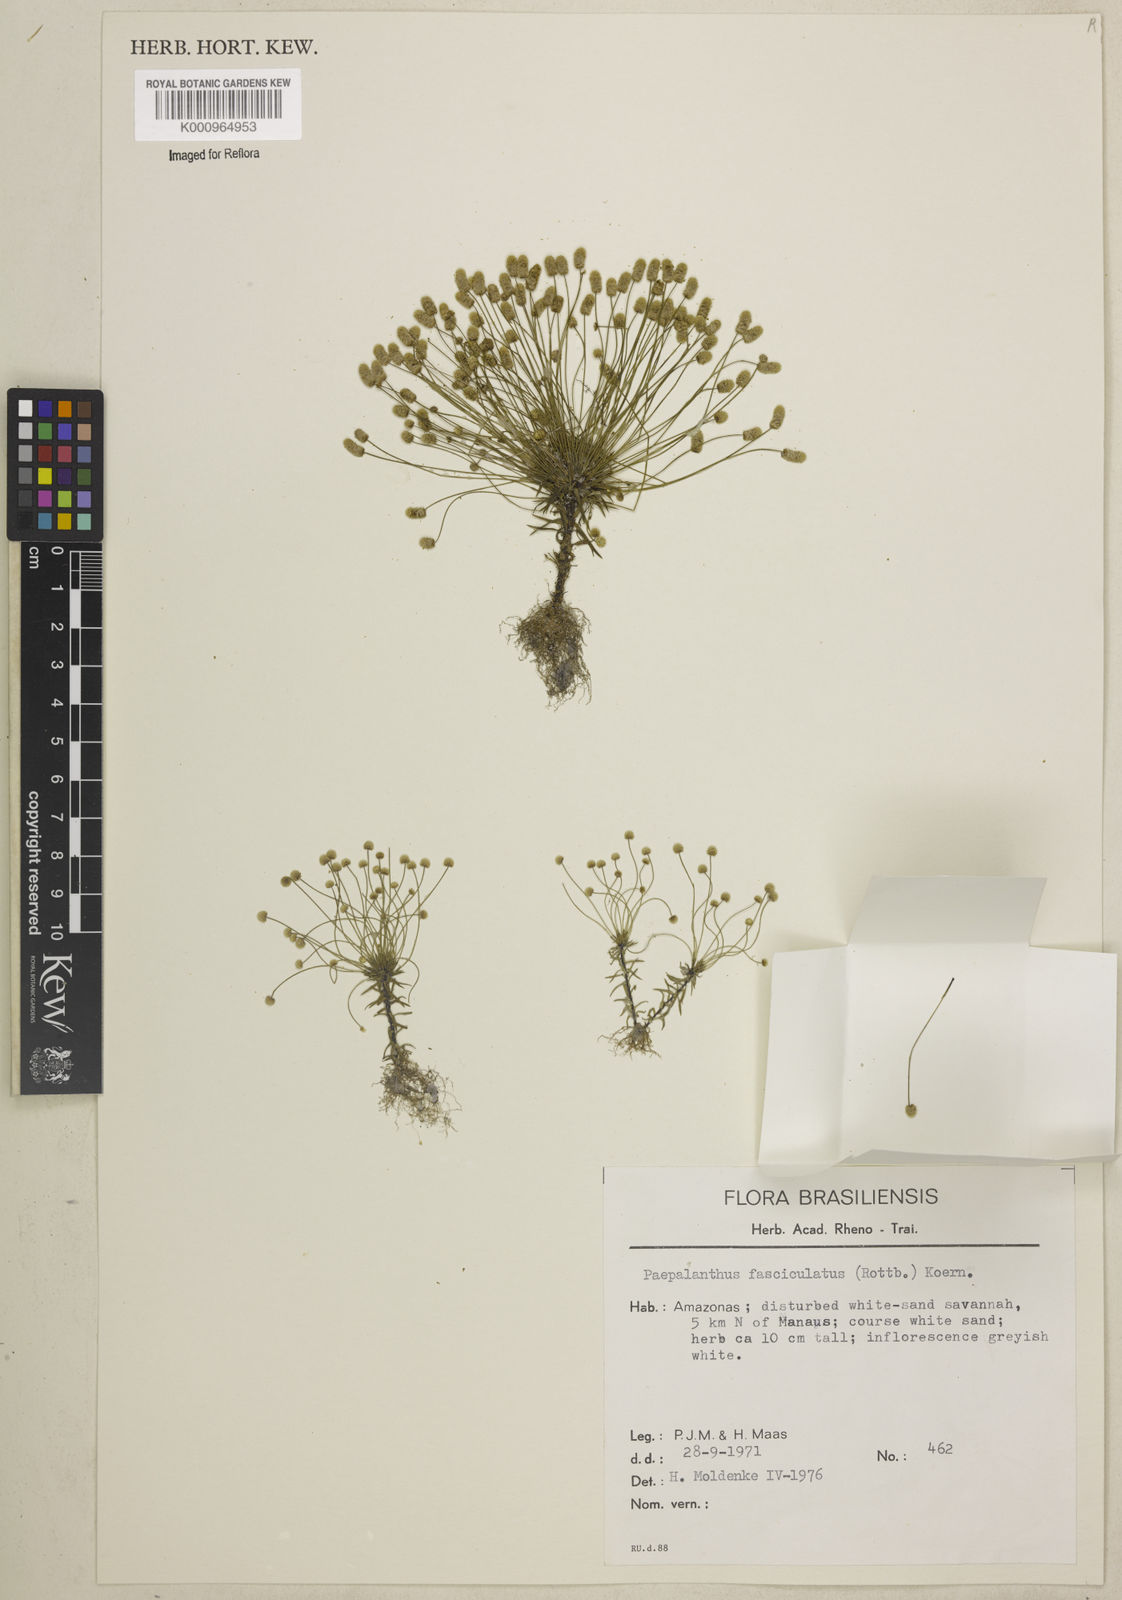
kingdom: Plantae
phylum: Tracheophyta
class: Liliopsida
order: Poales
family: Eriocaulaceae
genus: Paepalanthus
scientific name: Paepalanthus fasciculatus
